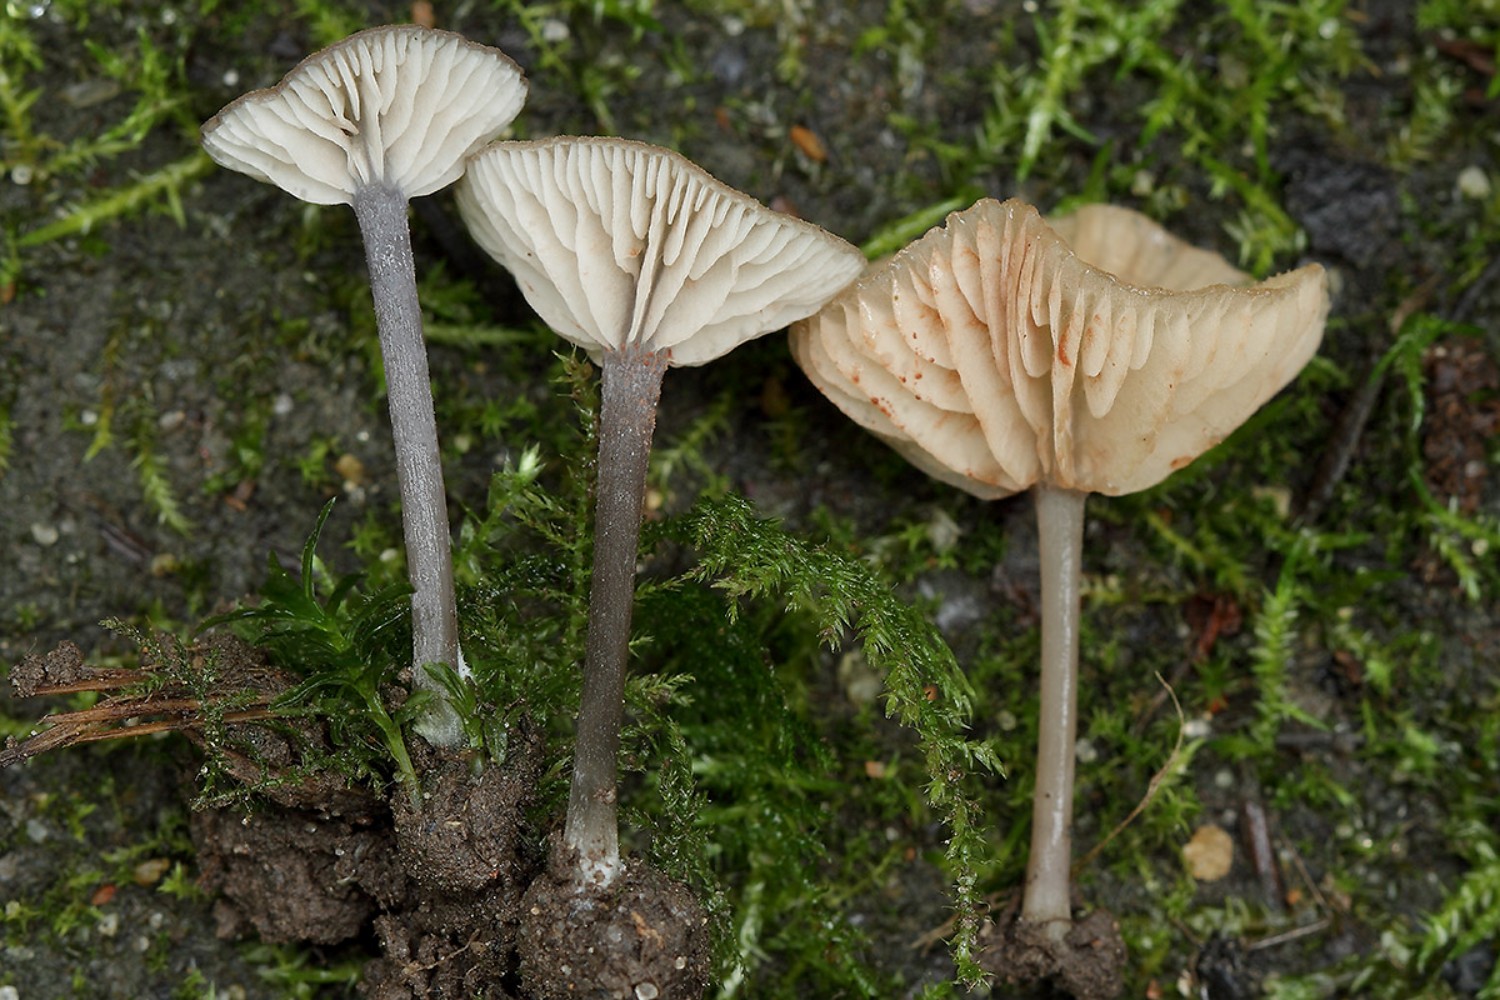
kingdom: Fungi
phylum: Basidiomycota
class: Agaricomycetes
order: Agaricales
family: Entolomataceae
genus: Entoloma
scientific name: Entoloma incarnatofuscescens
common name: tragt-rødblad
